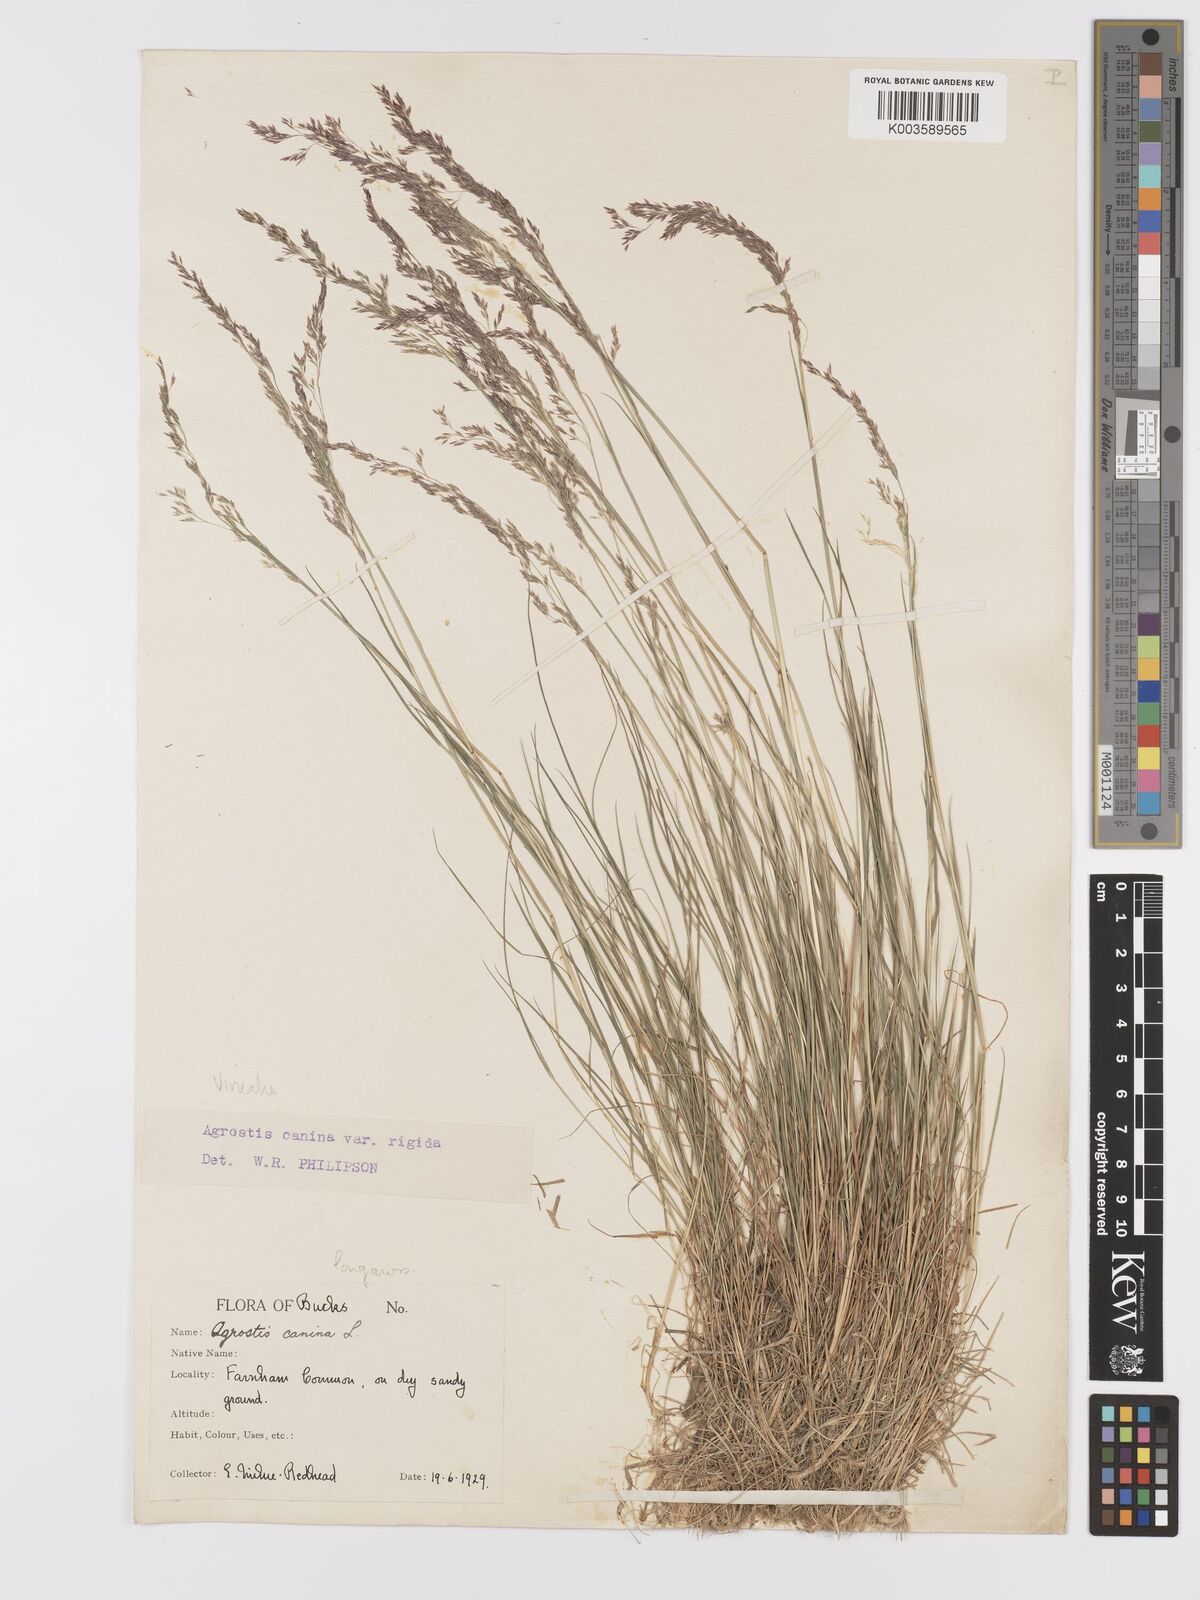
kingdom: Plantae
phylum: Tracheophyta
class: Liliopsida
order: Poales
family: Poaceae
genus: Agrostis
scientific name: Agrostis
